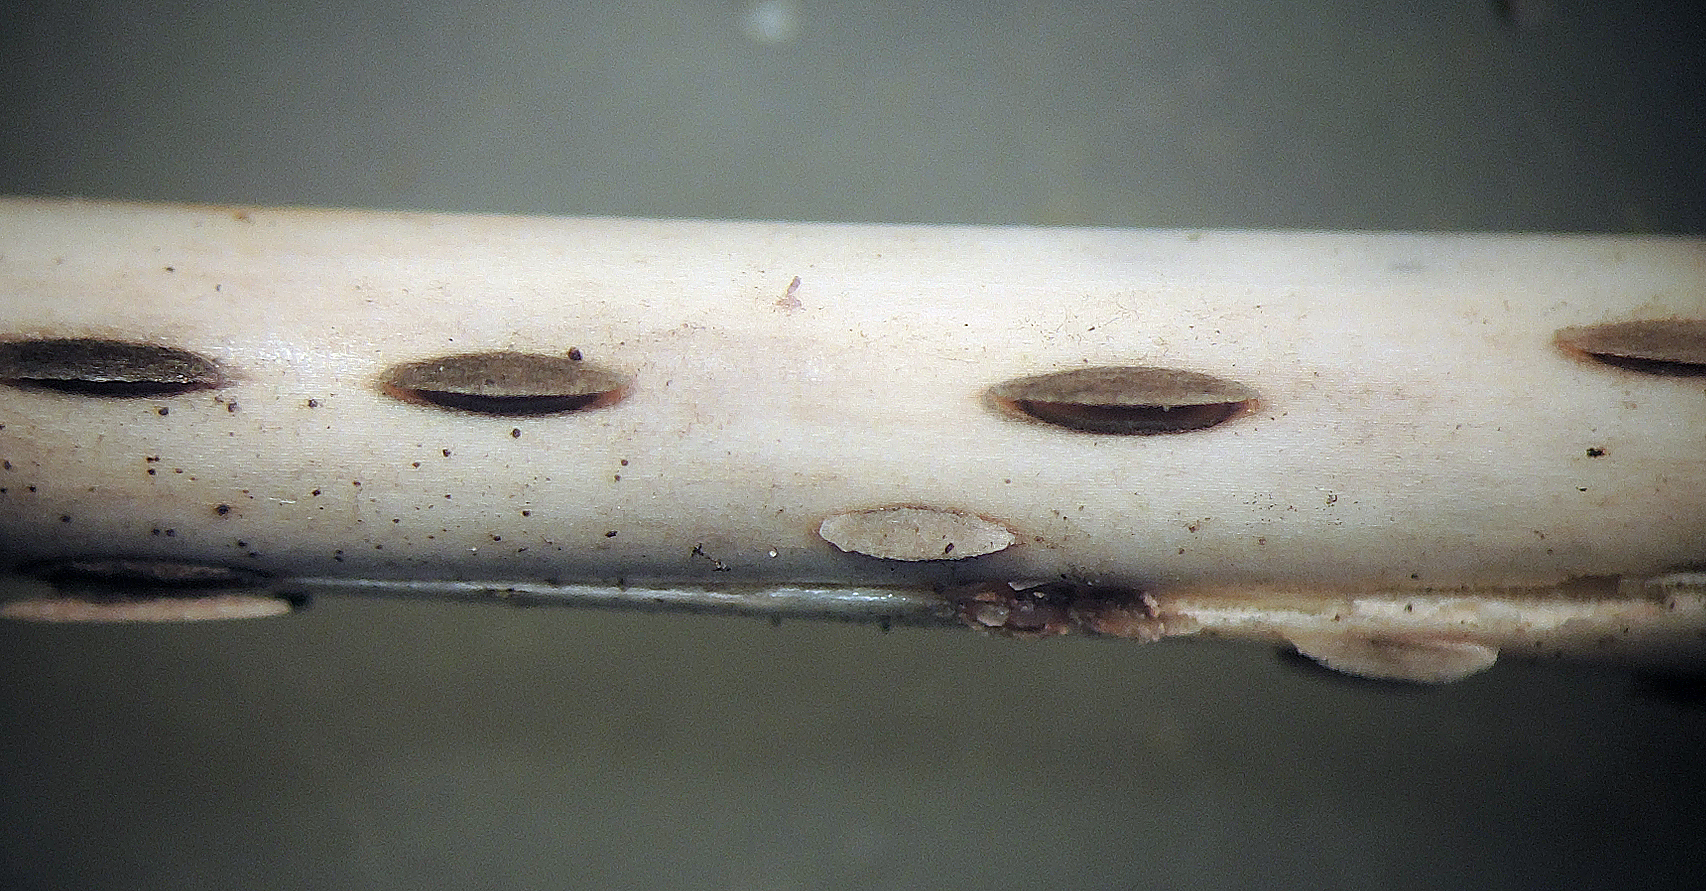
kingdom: Fungi
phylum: Ascomycota
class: Leotiomycetes
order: Helotiales
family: Dermateaceae
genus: Hysterostegiella
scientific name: Hysterostegiella valvata
